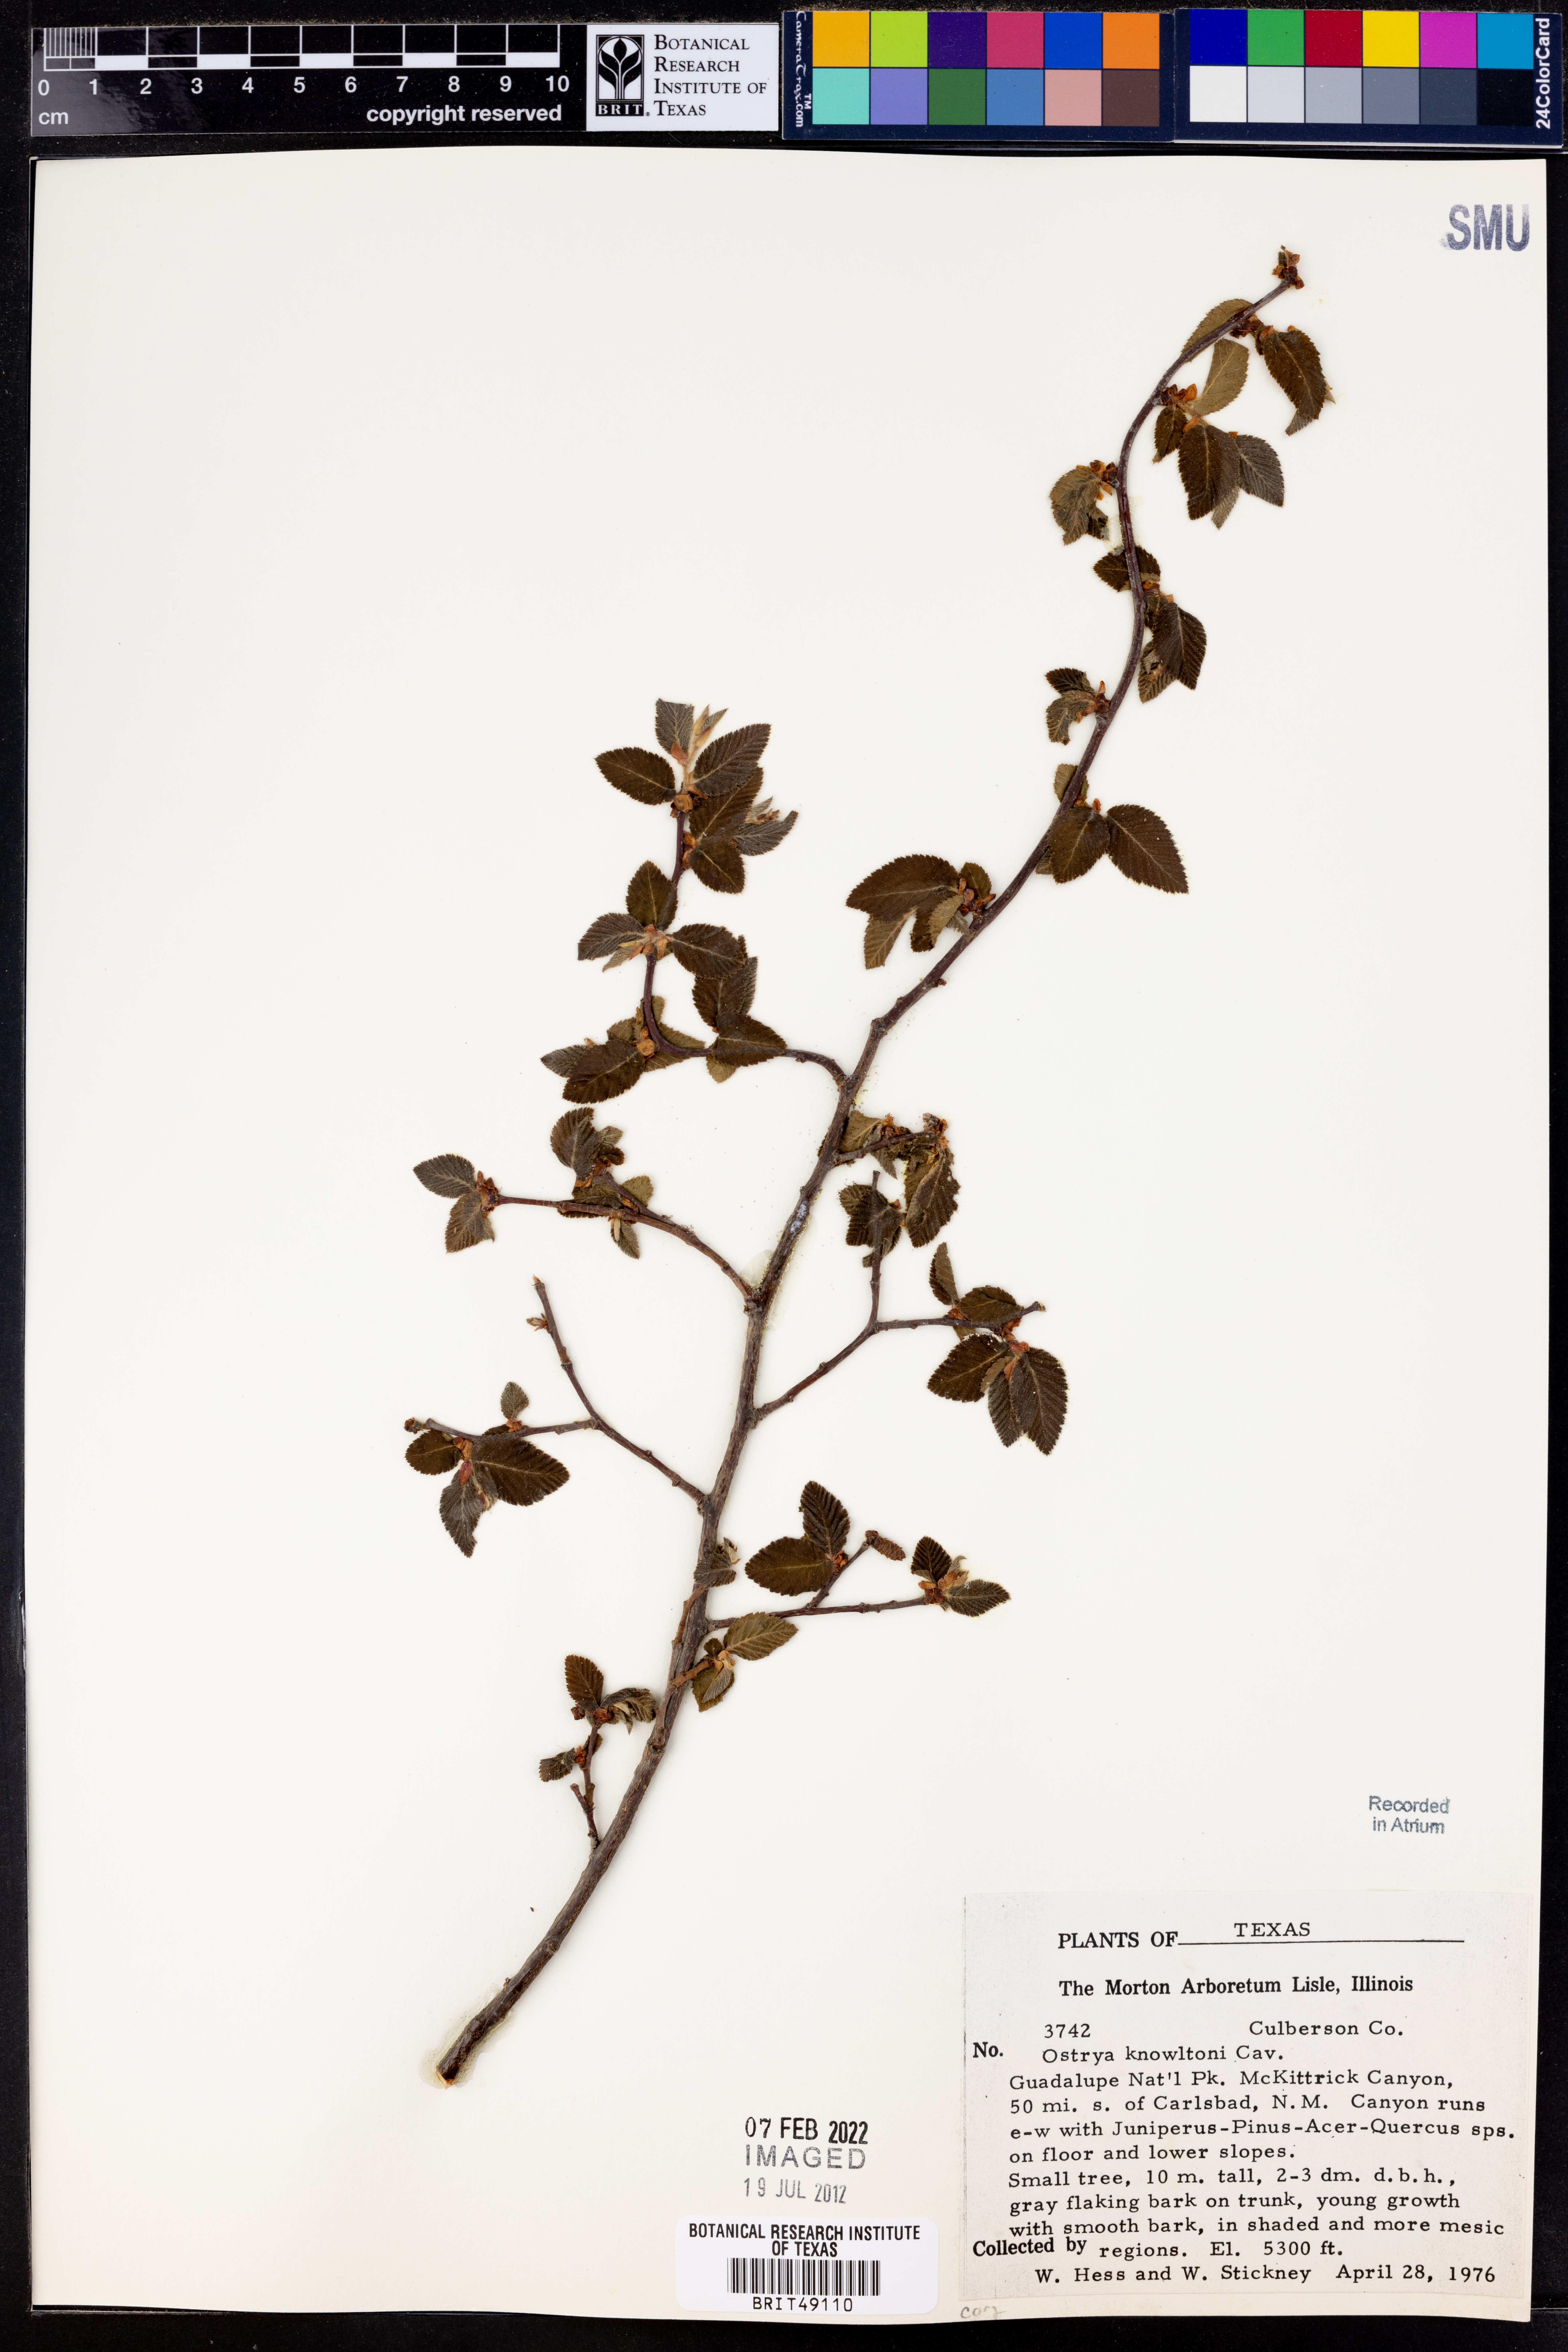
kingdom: Plantae
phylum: Tracheophyta
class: Magnoliopsida
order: Fagales
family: Betulaceae
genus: Ostrya
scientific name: Ostrya knowltonii
